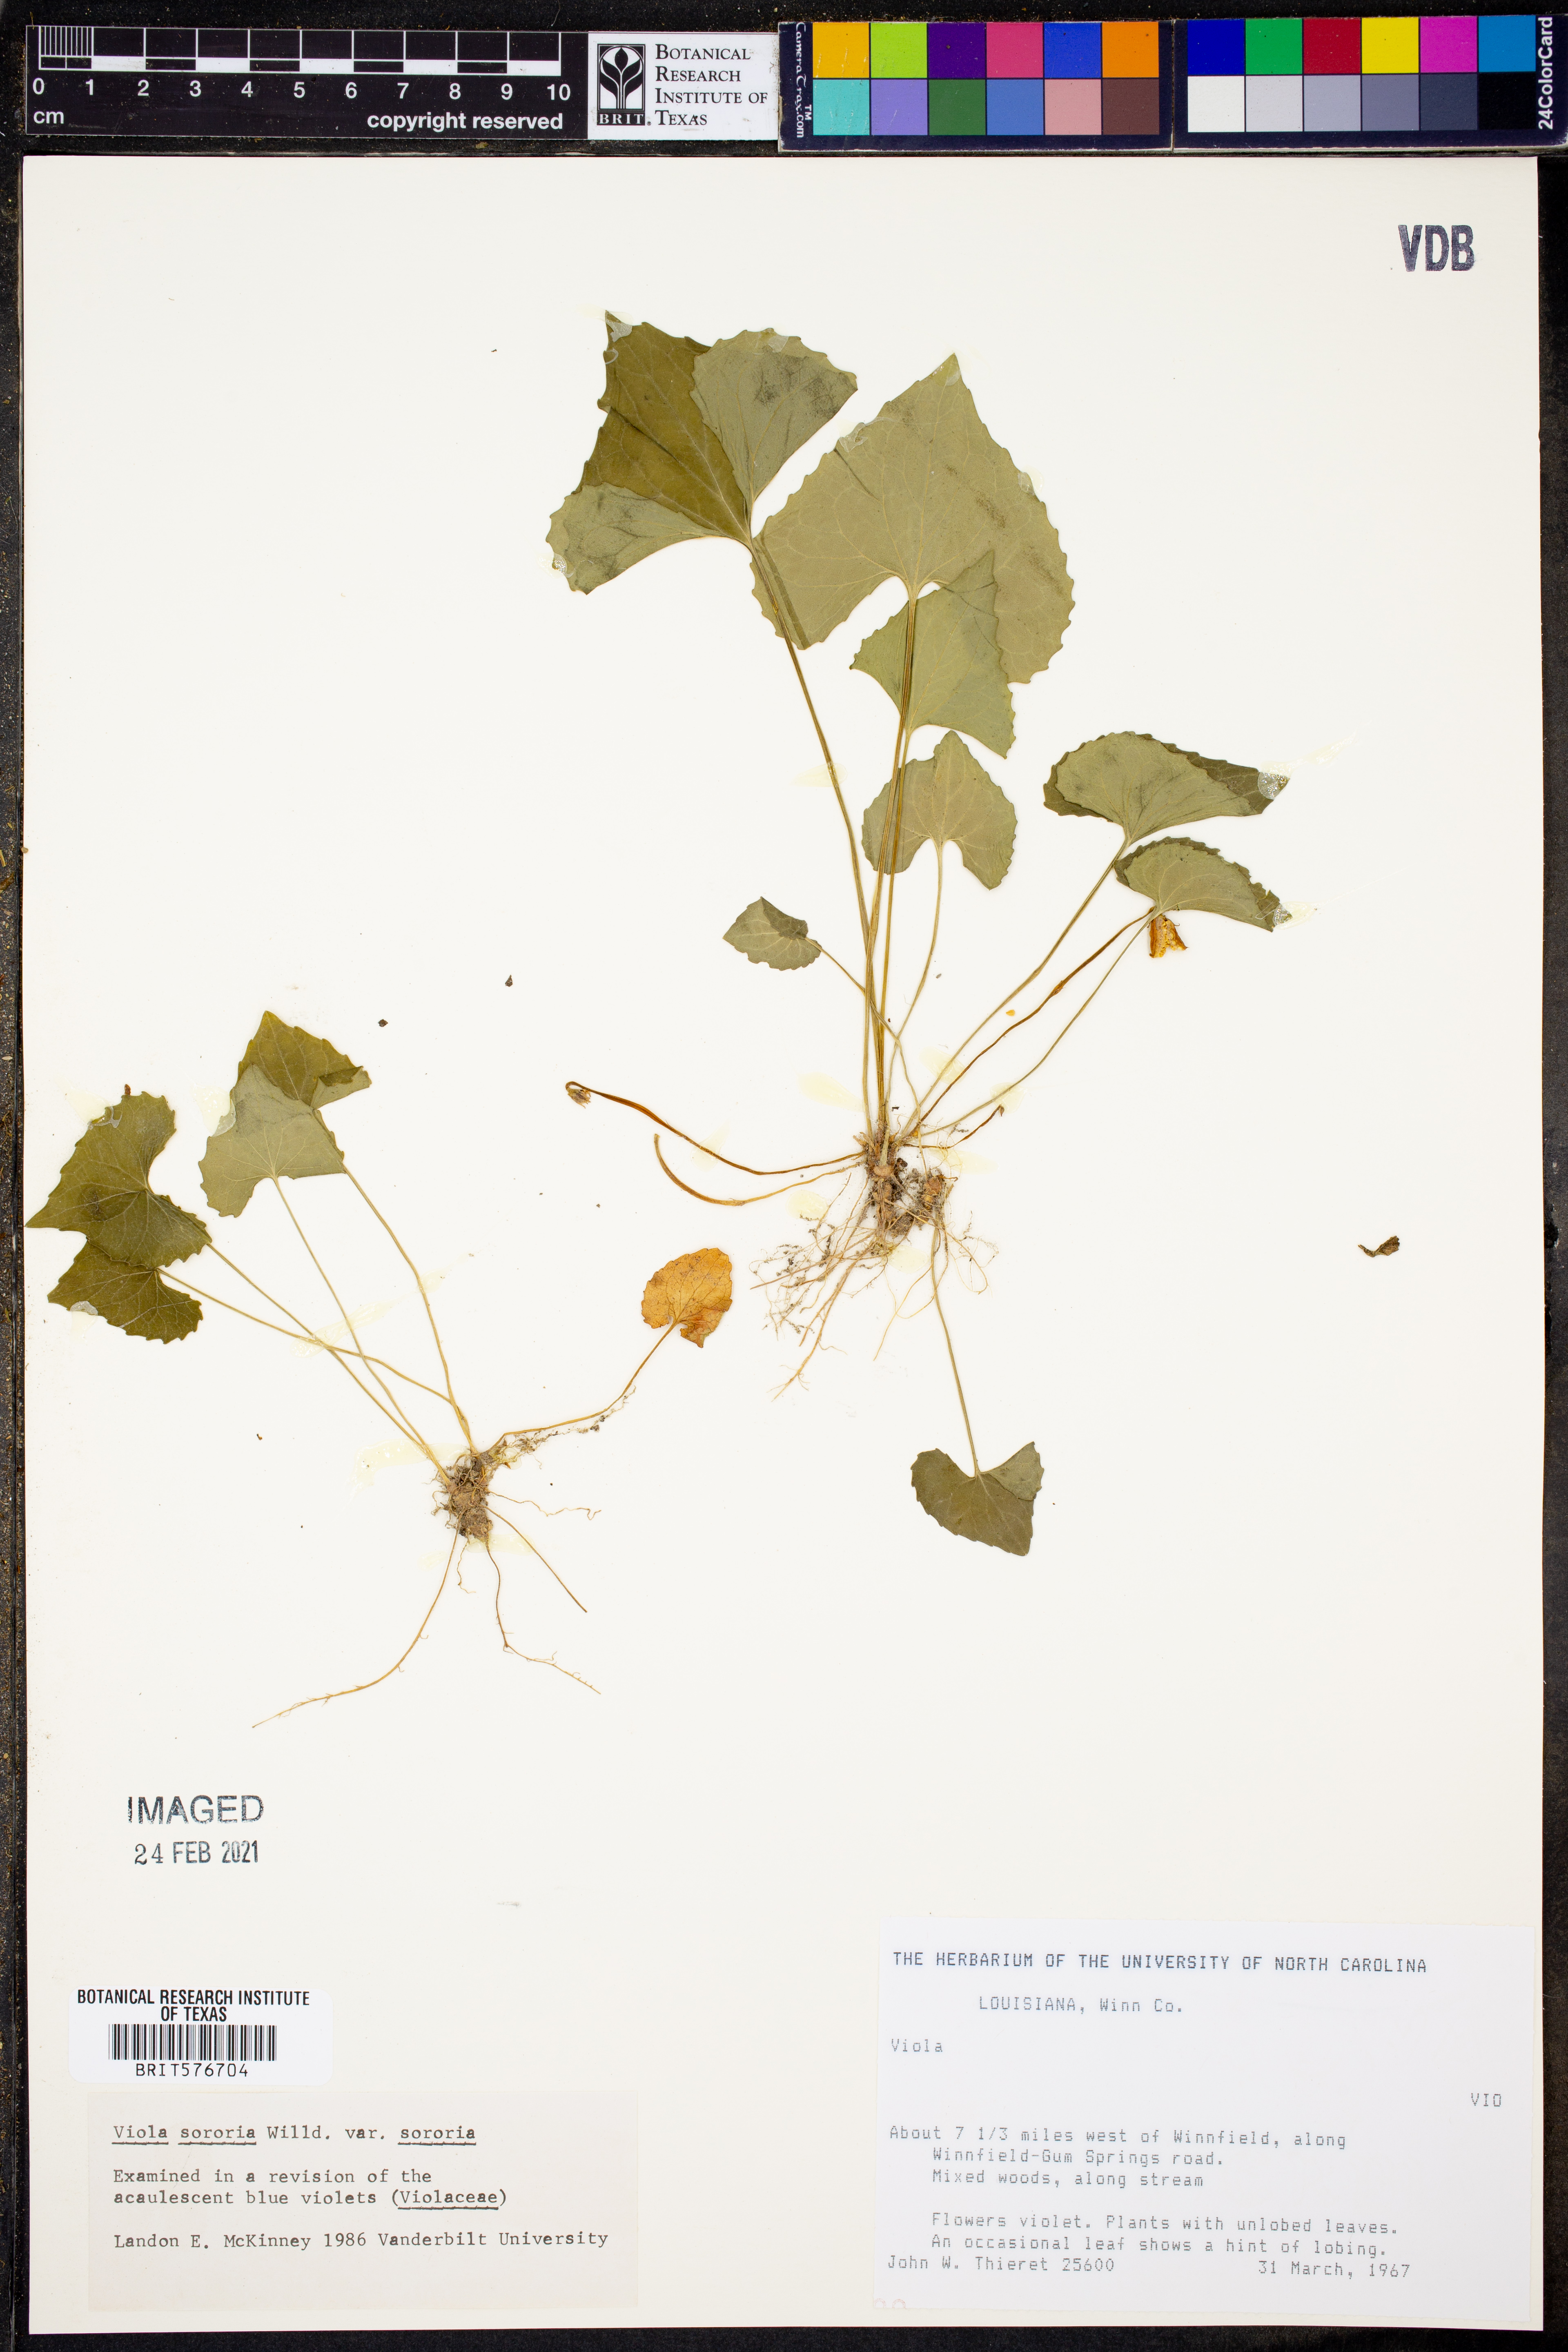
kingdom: Plantae
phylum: Tracheophyta
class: Magnoliopsida
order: Malpighiales
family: Violaceae
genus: Viola
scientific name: Viola sororia
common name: Dooryard violet
